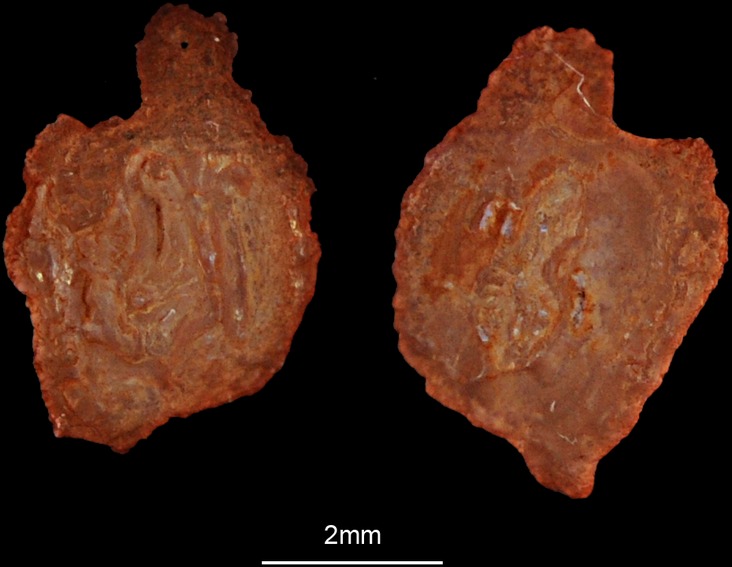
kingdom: Animalia
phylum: Chordata
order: Perciformes
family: Gobiidae
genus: Zosterisessor
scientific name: Zosterisessor ophiocephalus
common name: Grass goby
